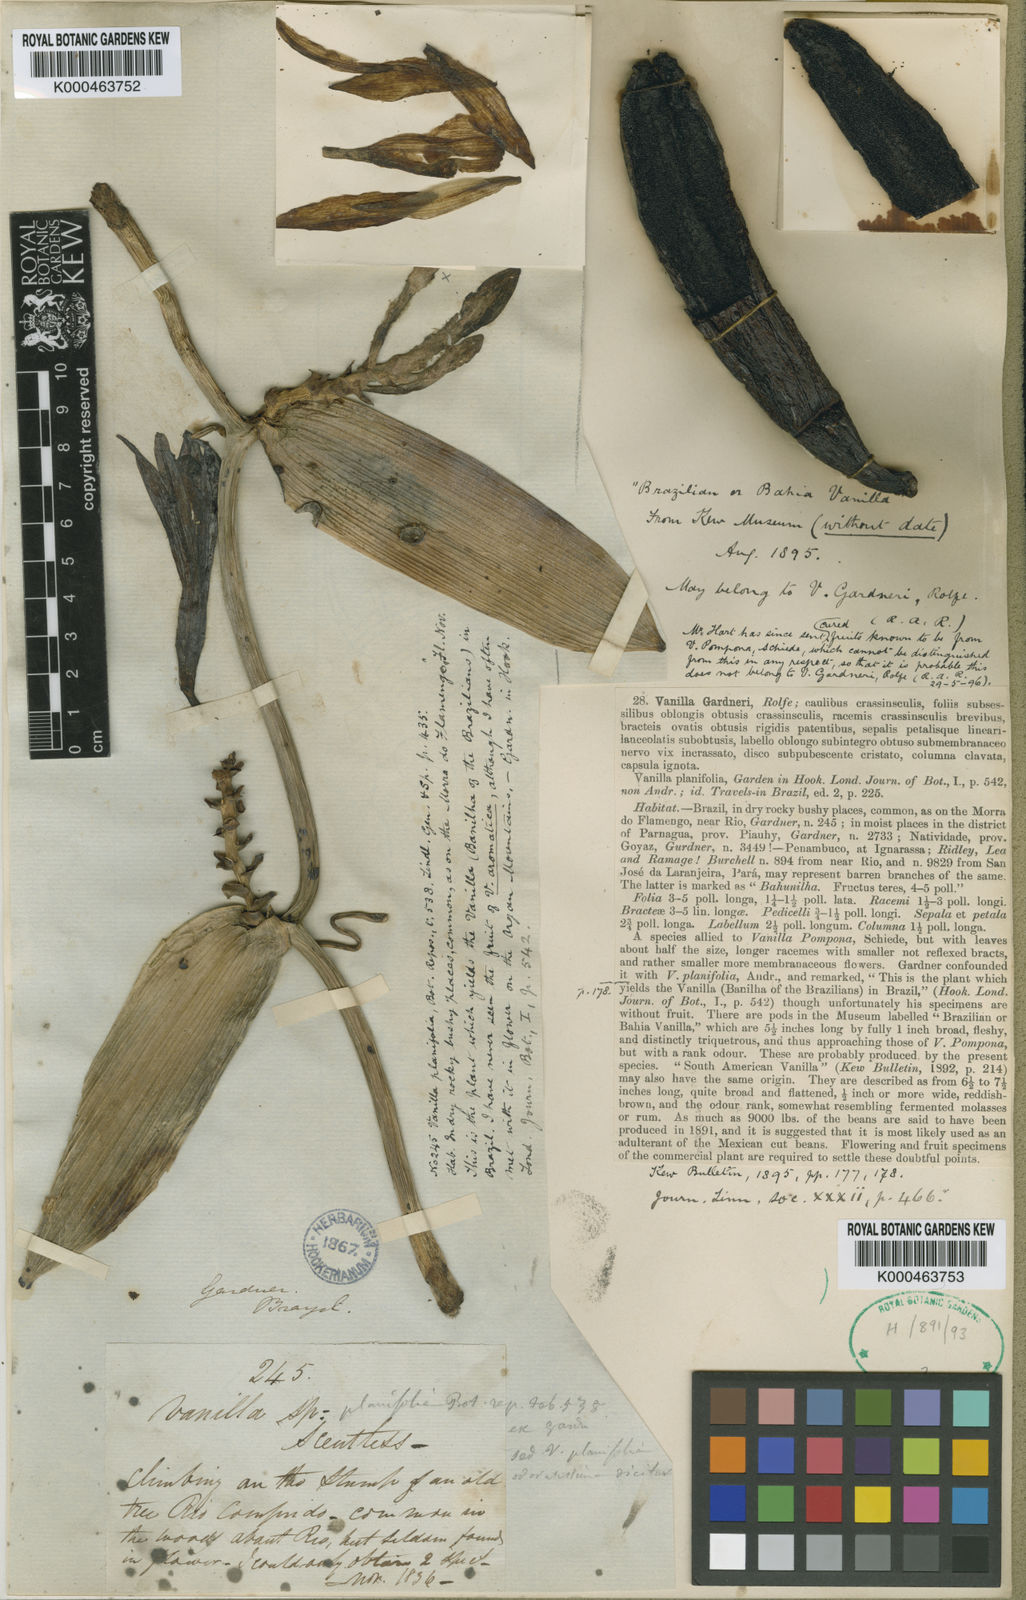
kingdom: Plantae
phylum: Tracheophyta
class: Liliopsida
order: Asparagales
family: Orchidaceae
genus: Vanilla
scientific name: Vanilla phaeantha
